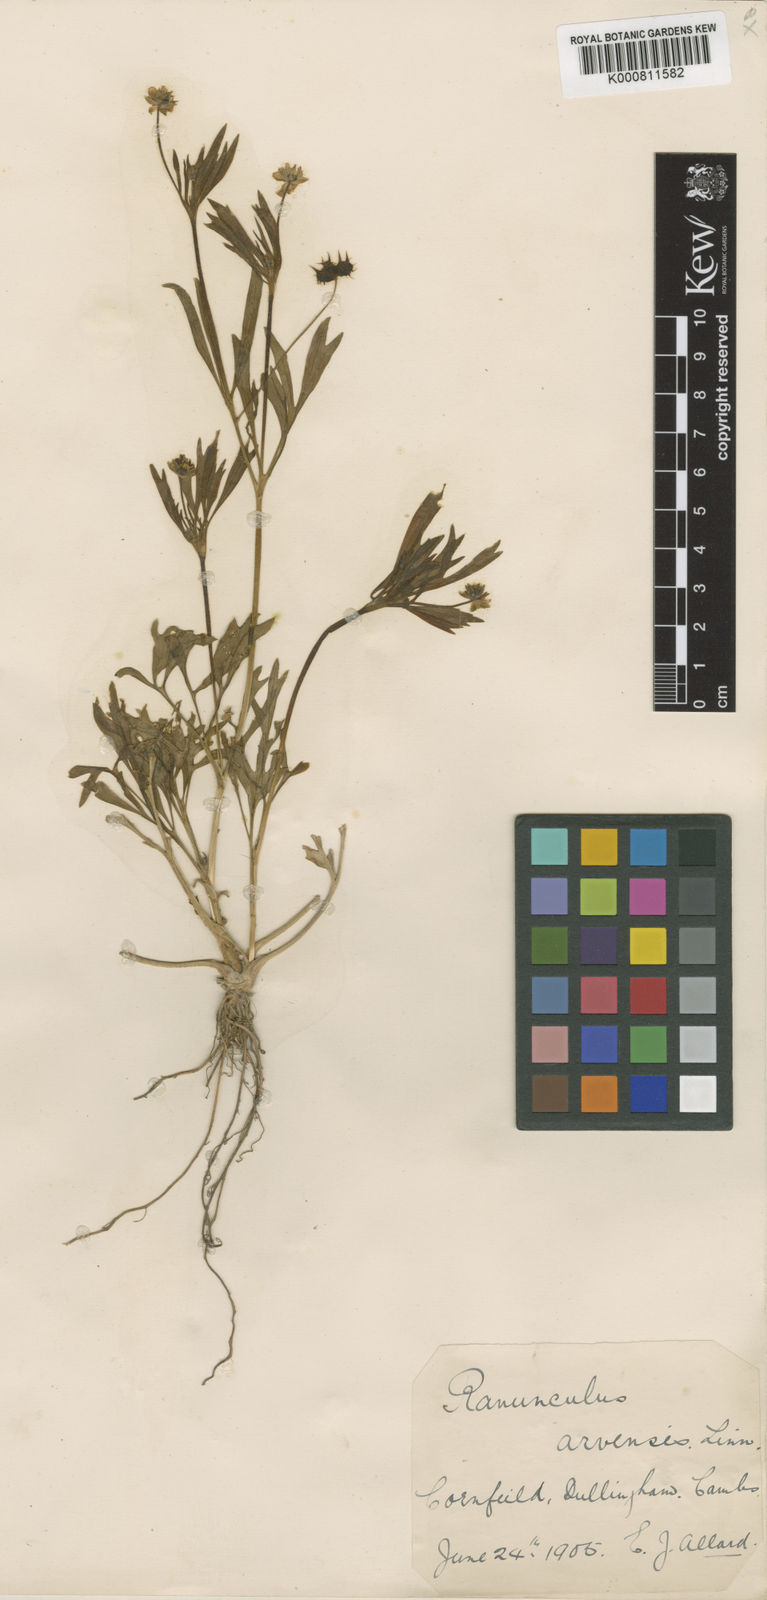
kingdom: Plantae
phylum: Tracheophyta
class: Magnoliopsida
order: Ranunculales
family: Ranunculaceae
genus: Ranunculus
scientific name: Ranunculus arvensis
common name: Corn buttercup
